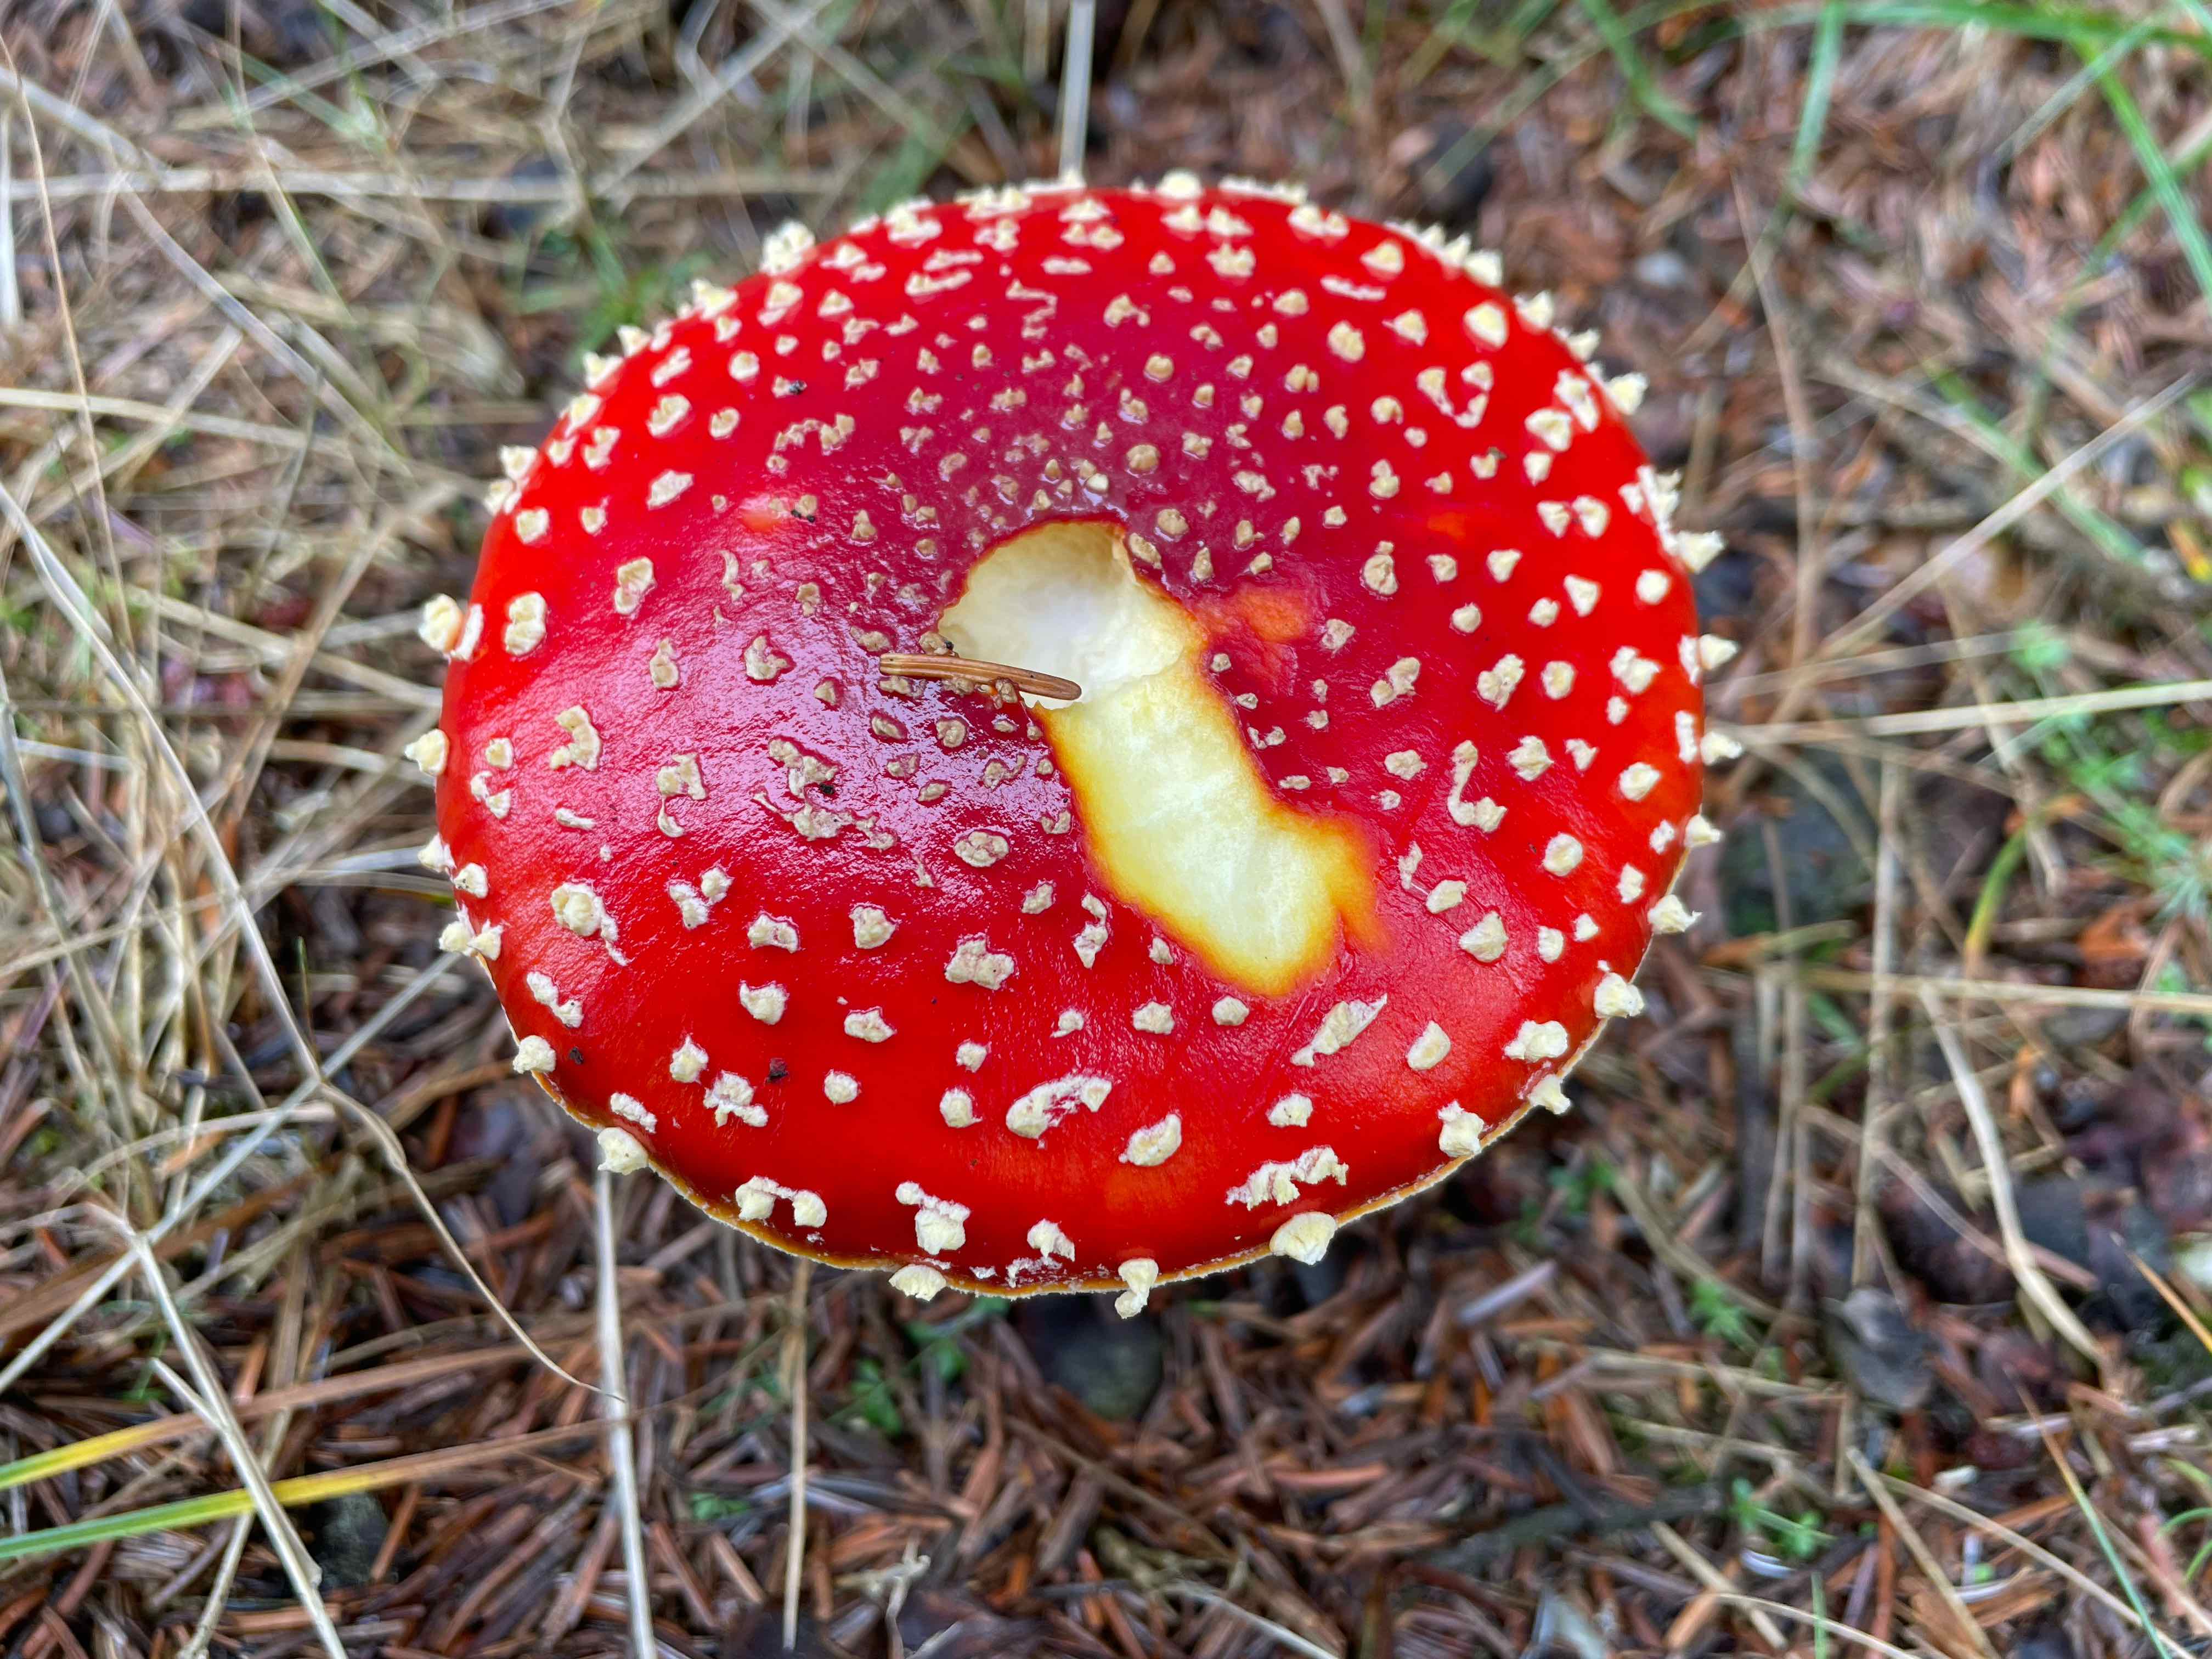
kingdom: Fungi
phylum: Basidiomycota
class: Agaricomycetes
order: Agaricales
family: Amanitaceae
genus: Amanita
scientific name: Amanita muscaria
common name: rød fluesvamp
